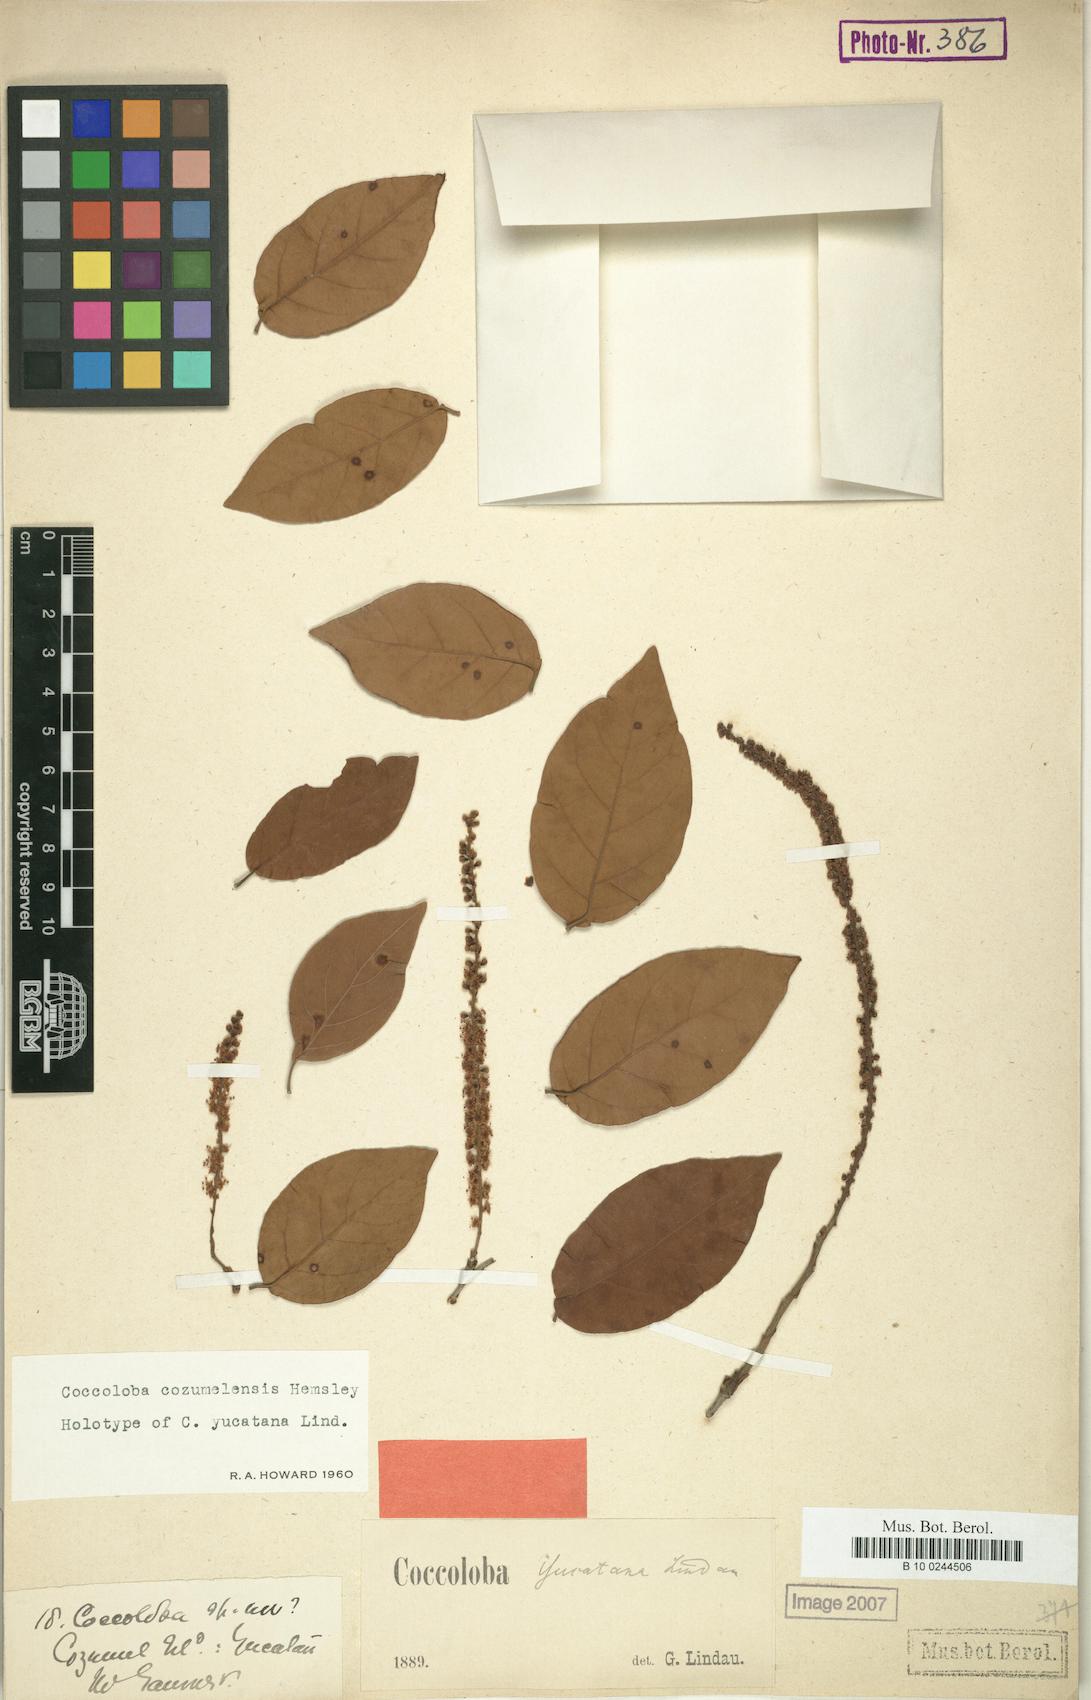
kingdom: Plantae
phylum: Tracheophyta
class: Magnoliopsida
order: Caryophyllales
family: Polygonaceae
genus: Coccoloba
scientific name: Coccoloba cozumelensis
